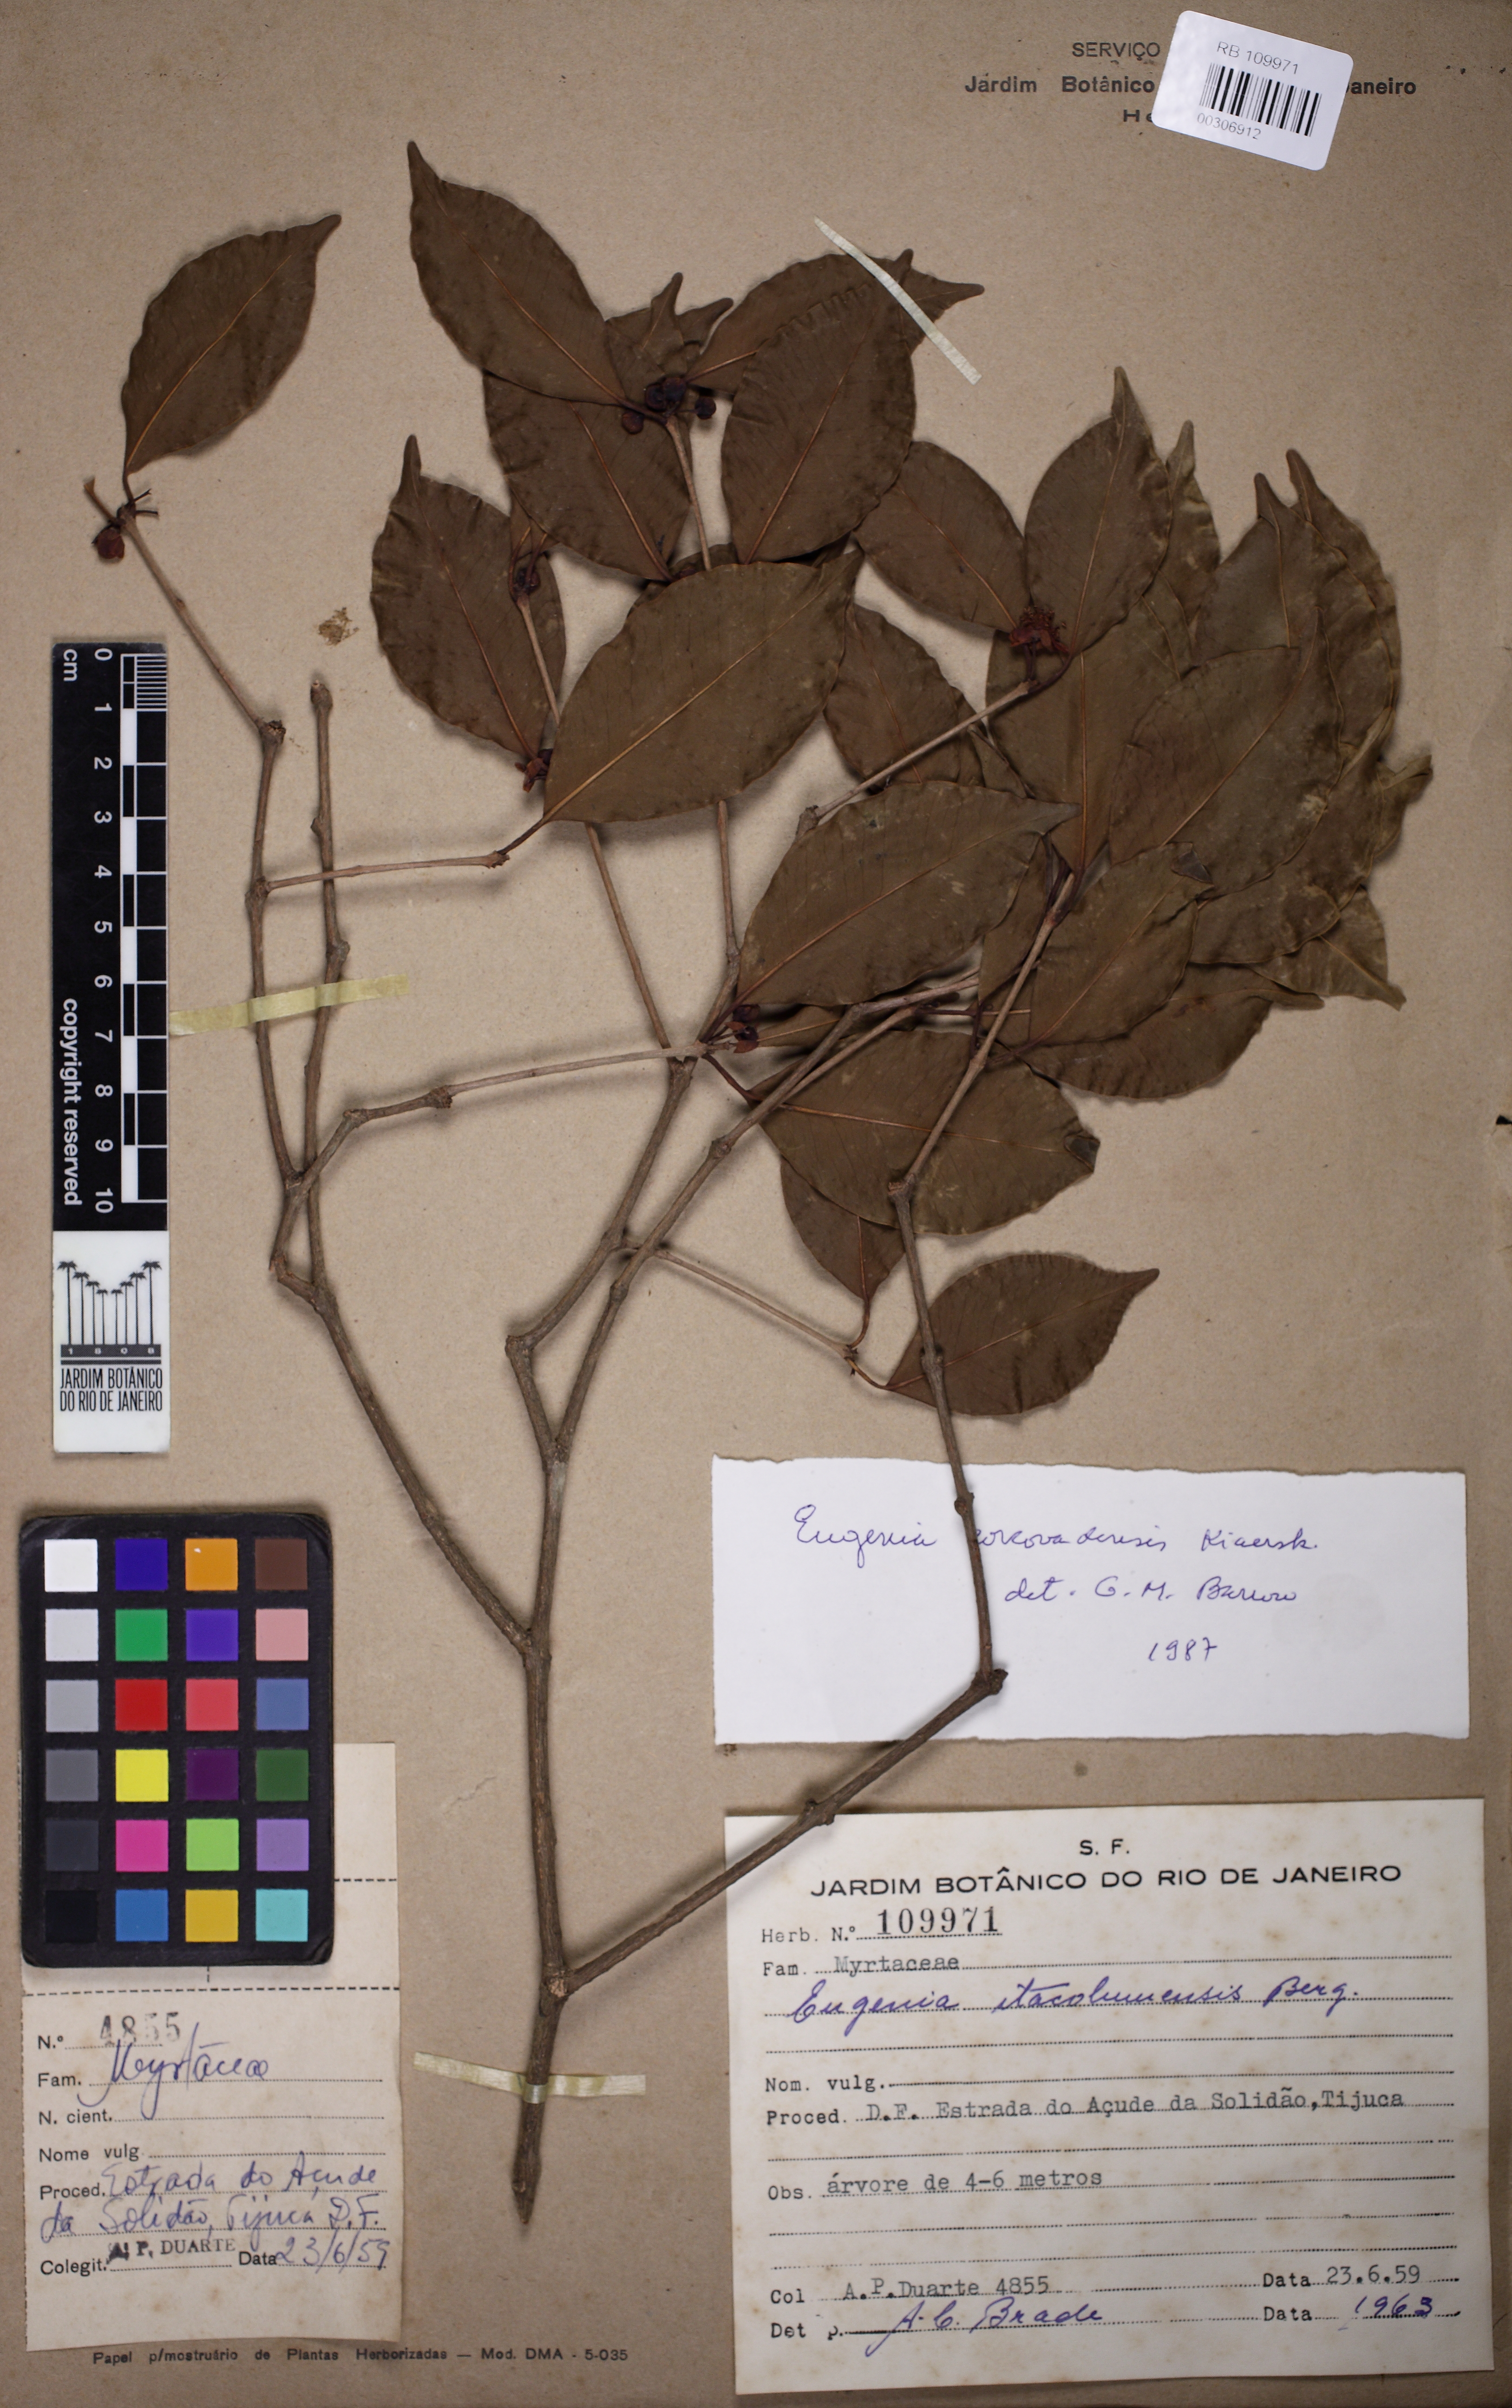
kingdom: Plantae
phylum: Tracheophyta
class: Magnoliopsida
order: Myrtales
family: Myrtaceae
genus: Eugenia
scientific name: Eugenia corcovadensis
